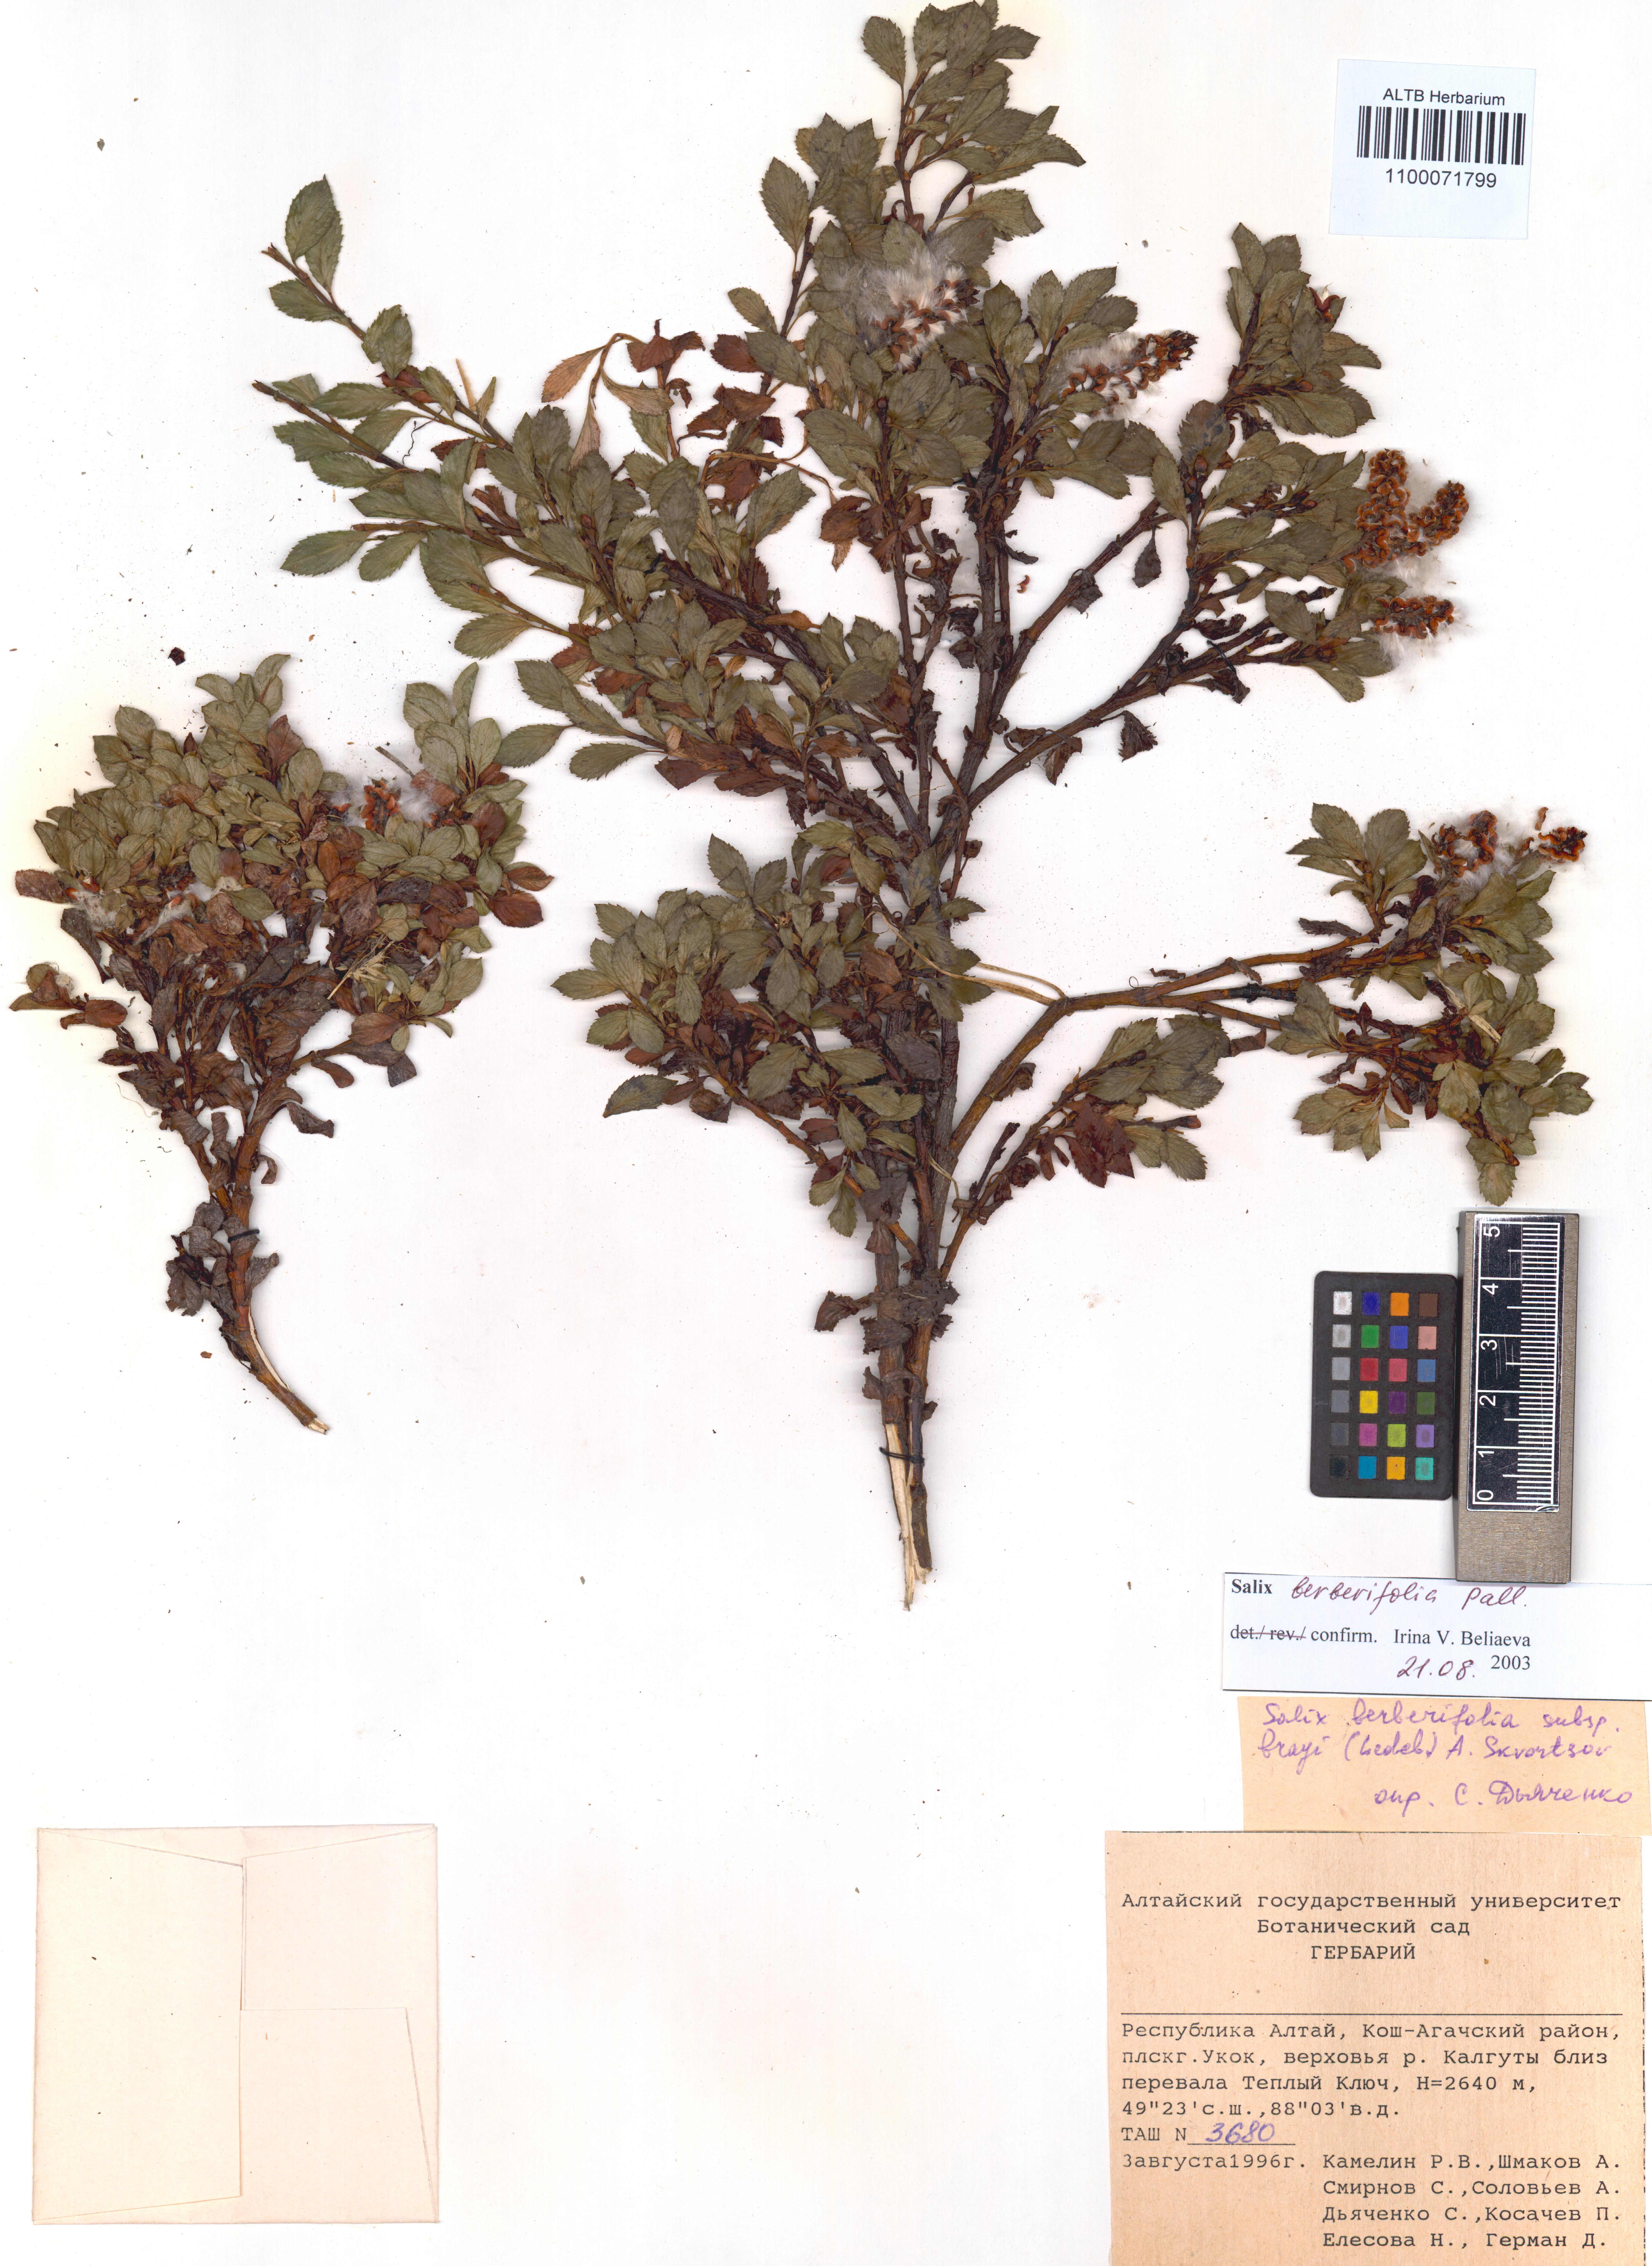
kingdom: Plantae
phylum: Tracheophyta
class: Magnoliopsida
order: Malpighiales
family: Salicaceae
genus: Salix
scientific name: Salix berberifolia
